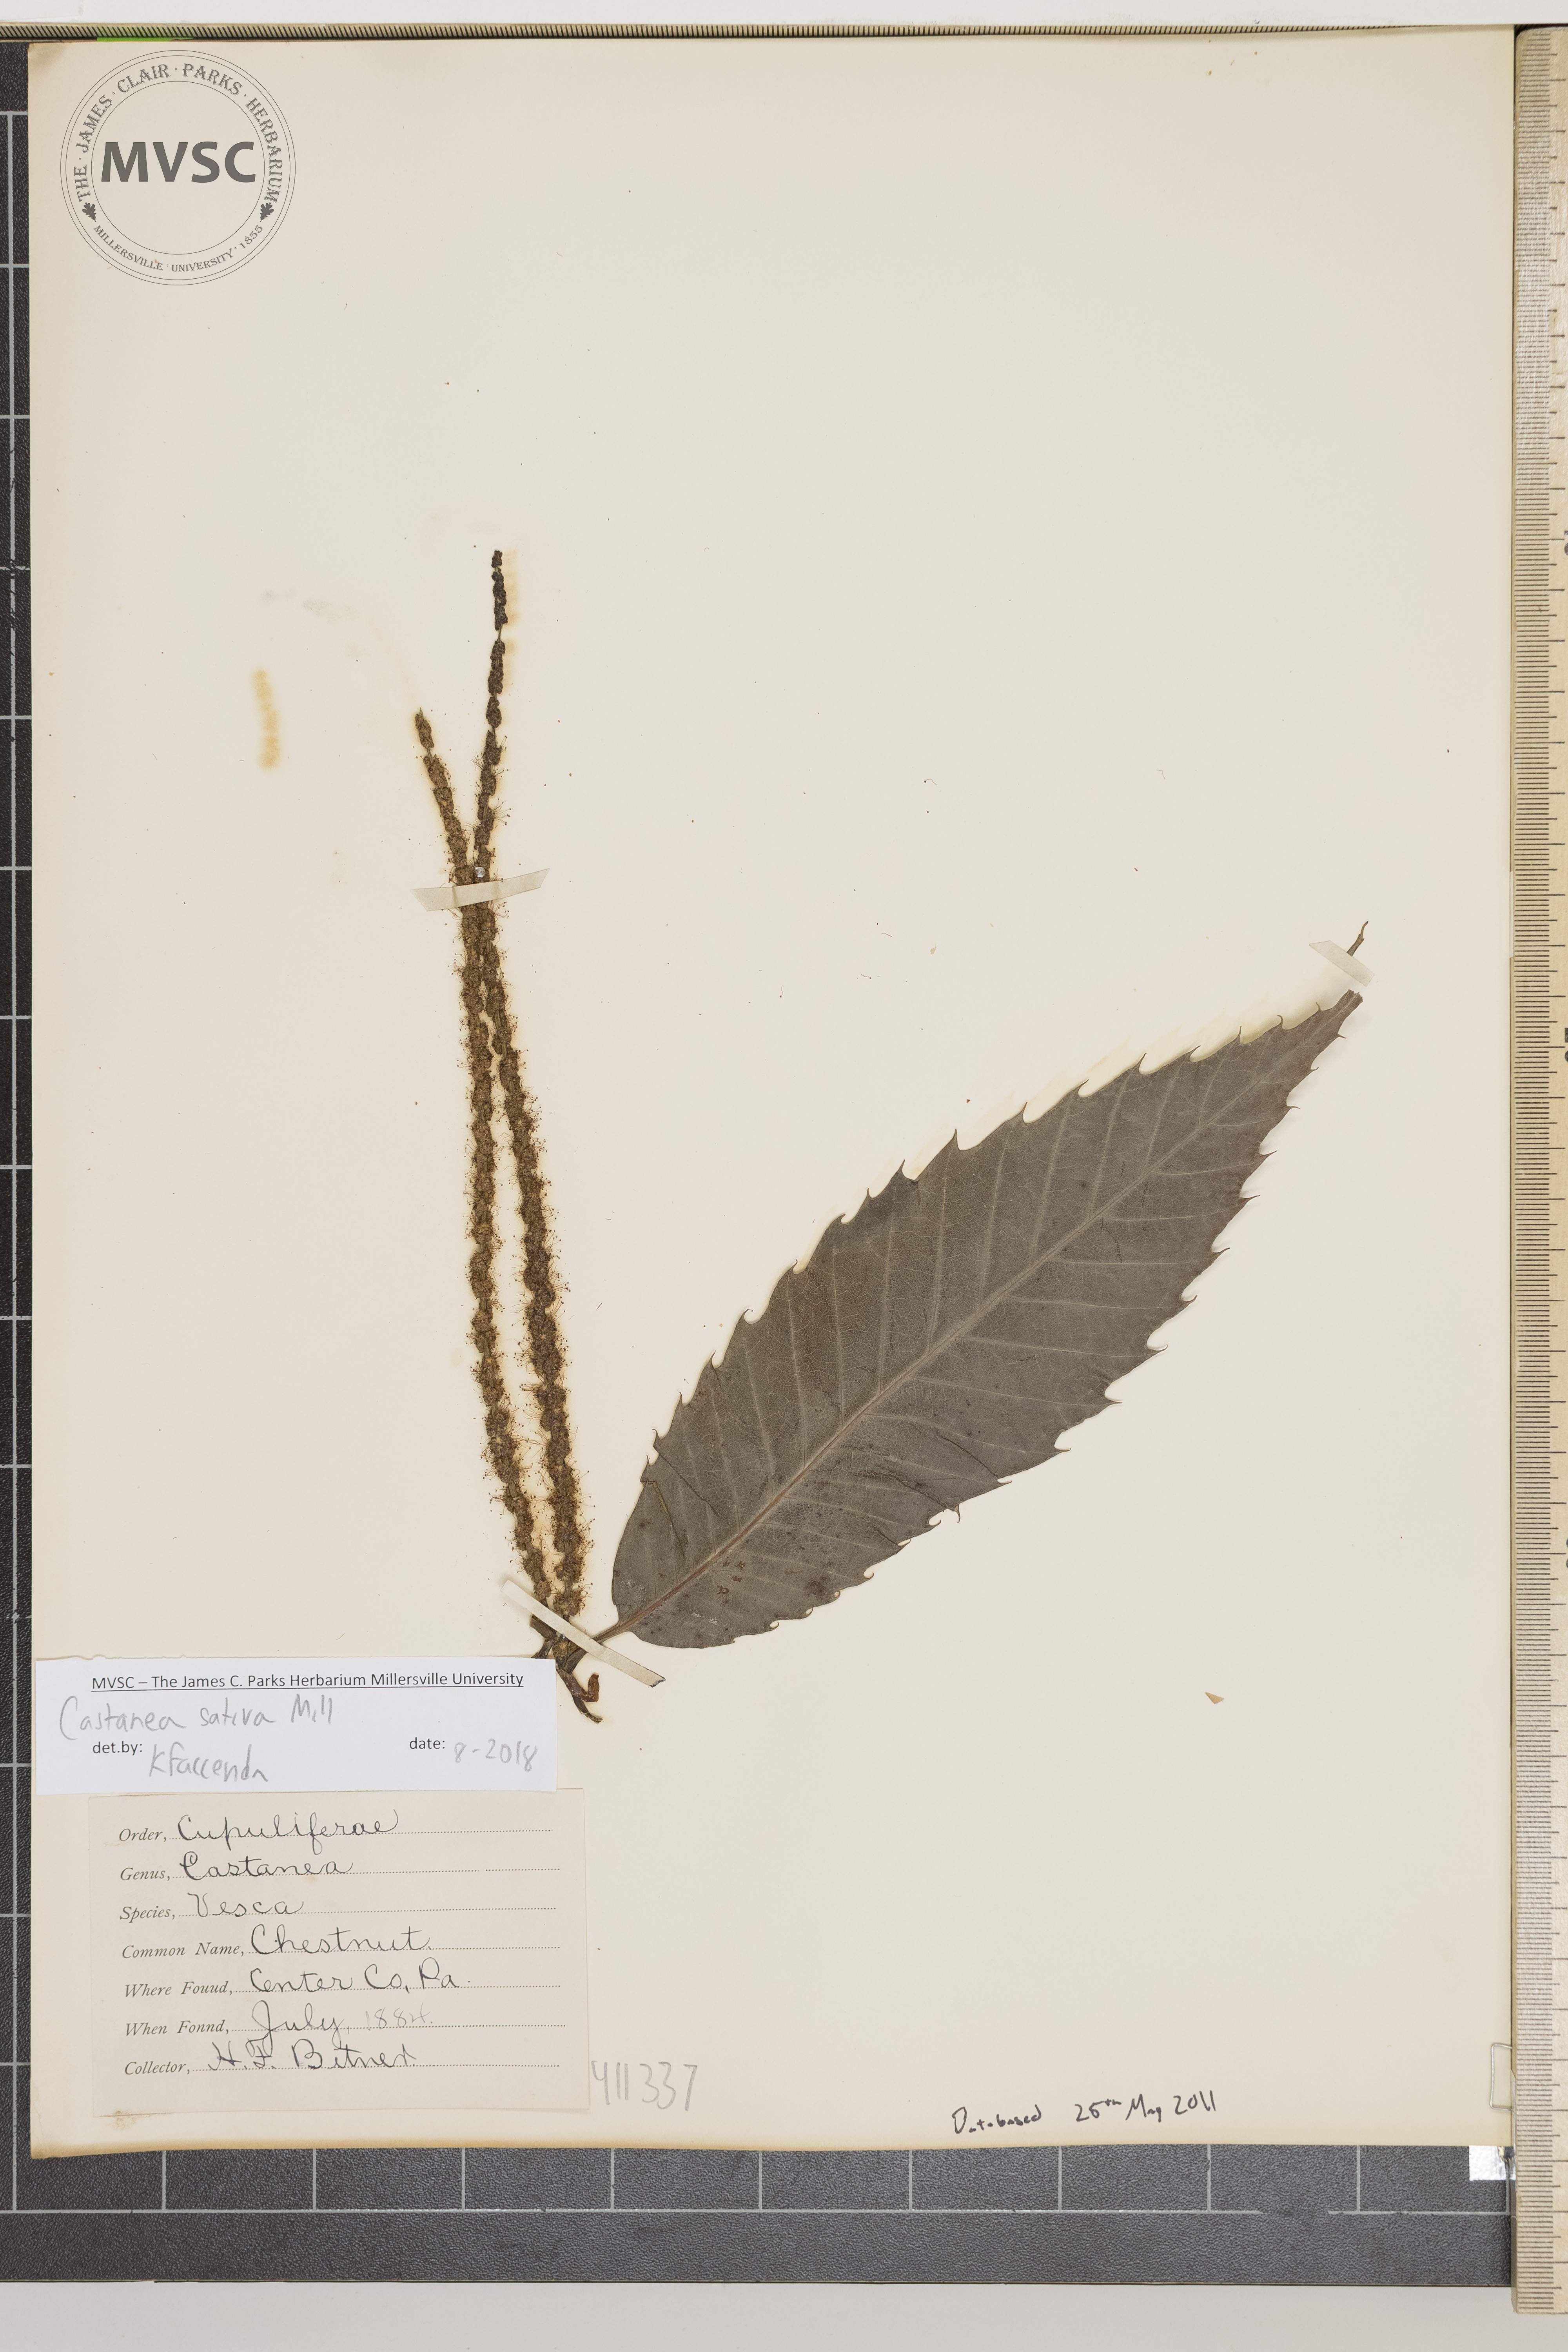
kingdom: Plantae
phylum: Tracheophyta
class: Magnoliopsida
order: Fagales
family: Fagaceae
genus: Castanea
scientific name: Castanea sativa
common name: Sweet chestnut
